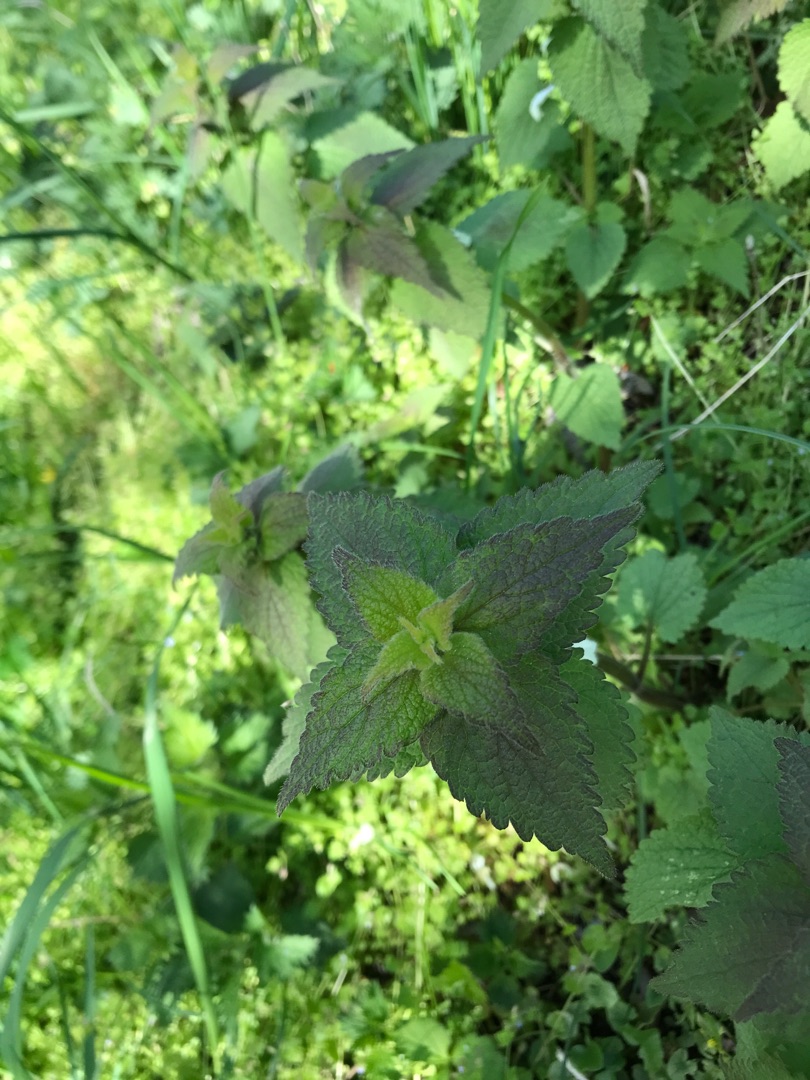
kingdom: Plantae
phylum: Tracheophyta
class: Magnoliopsida
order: Lamiales
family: Lamiaceae
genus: Lamium
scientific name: Lamium album
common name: Døvnælde
